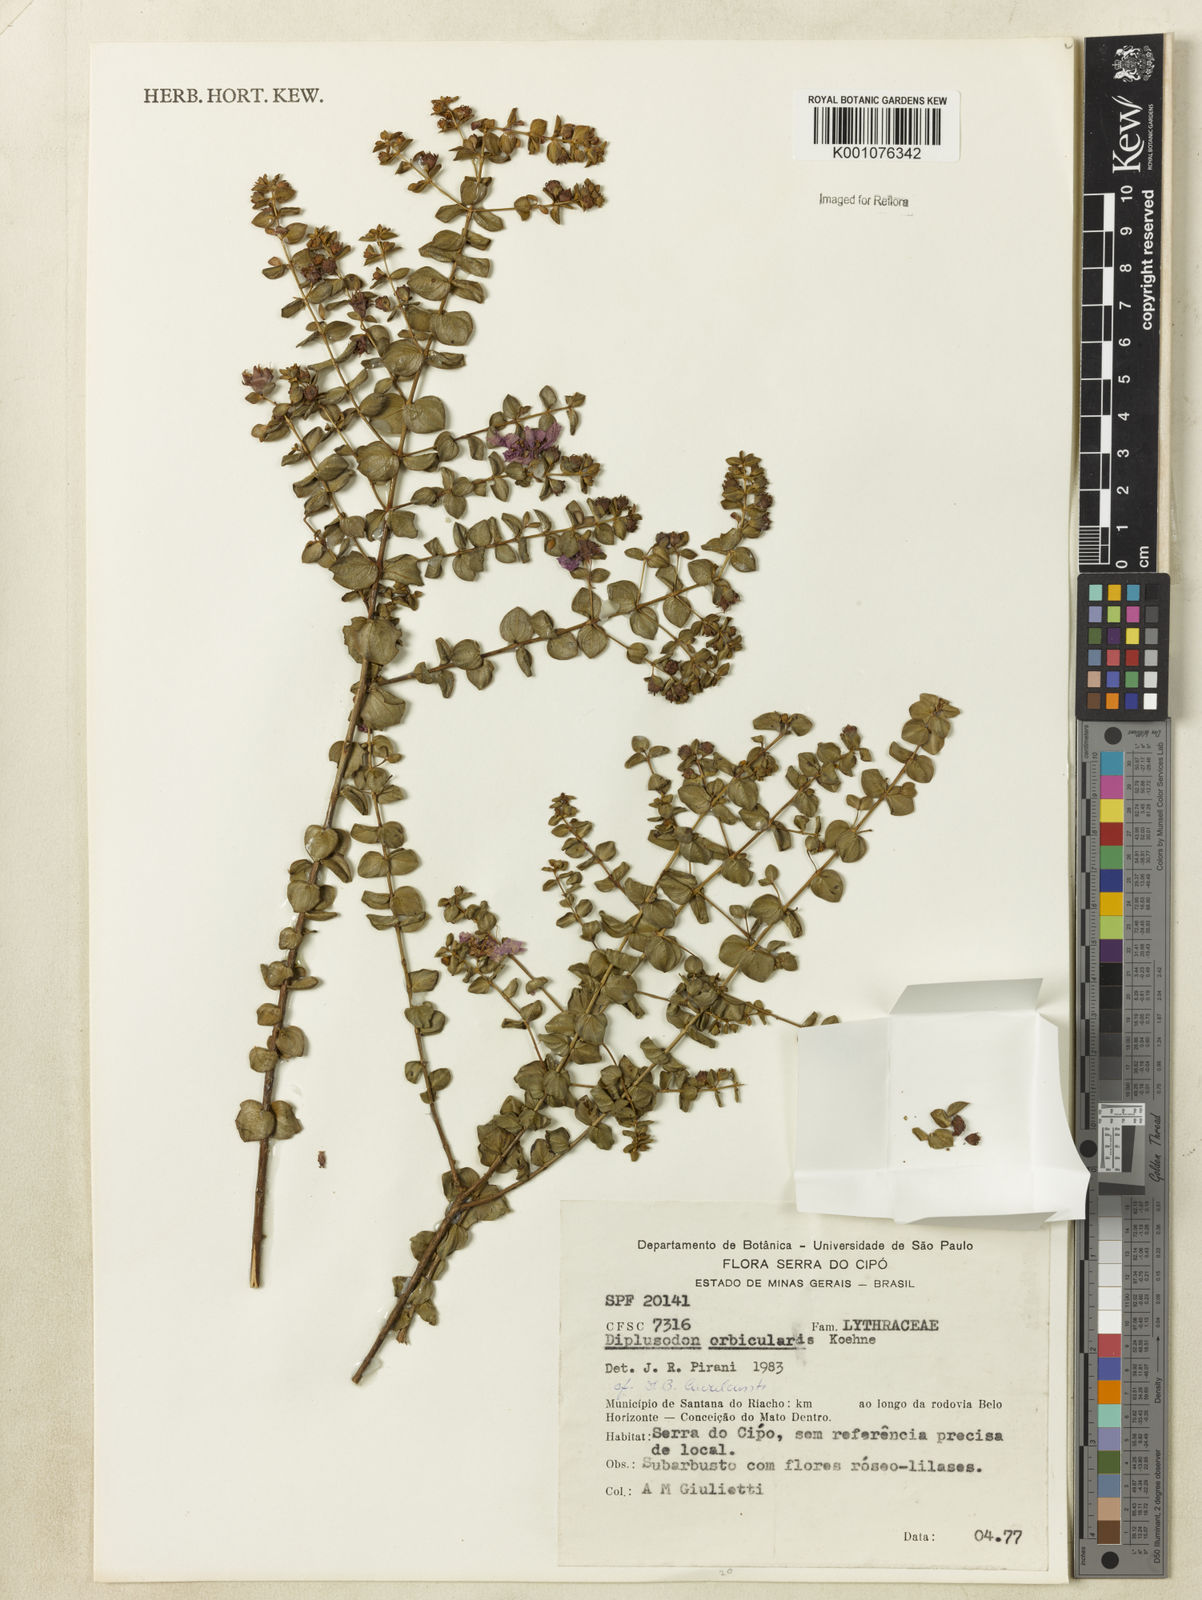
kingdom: Plantae
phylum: Tracheophyta
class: Magnoliopsida
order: Myrtales
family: Lythraceae
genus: Diplusodon
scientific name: Diplusodon orbicularis
